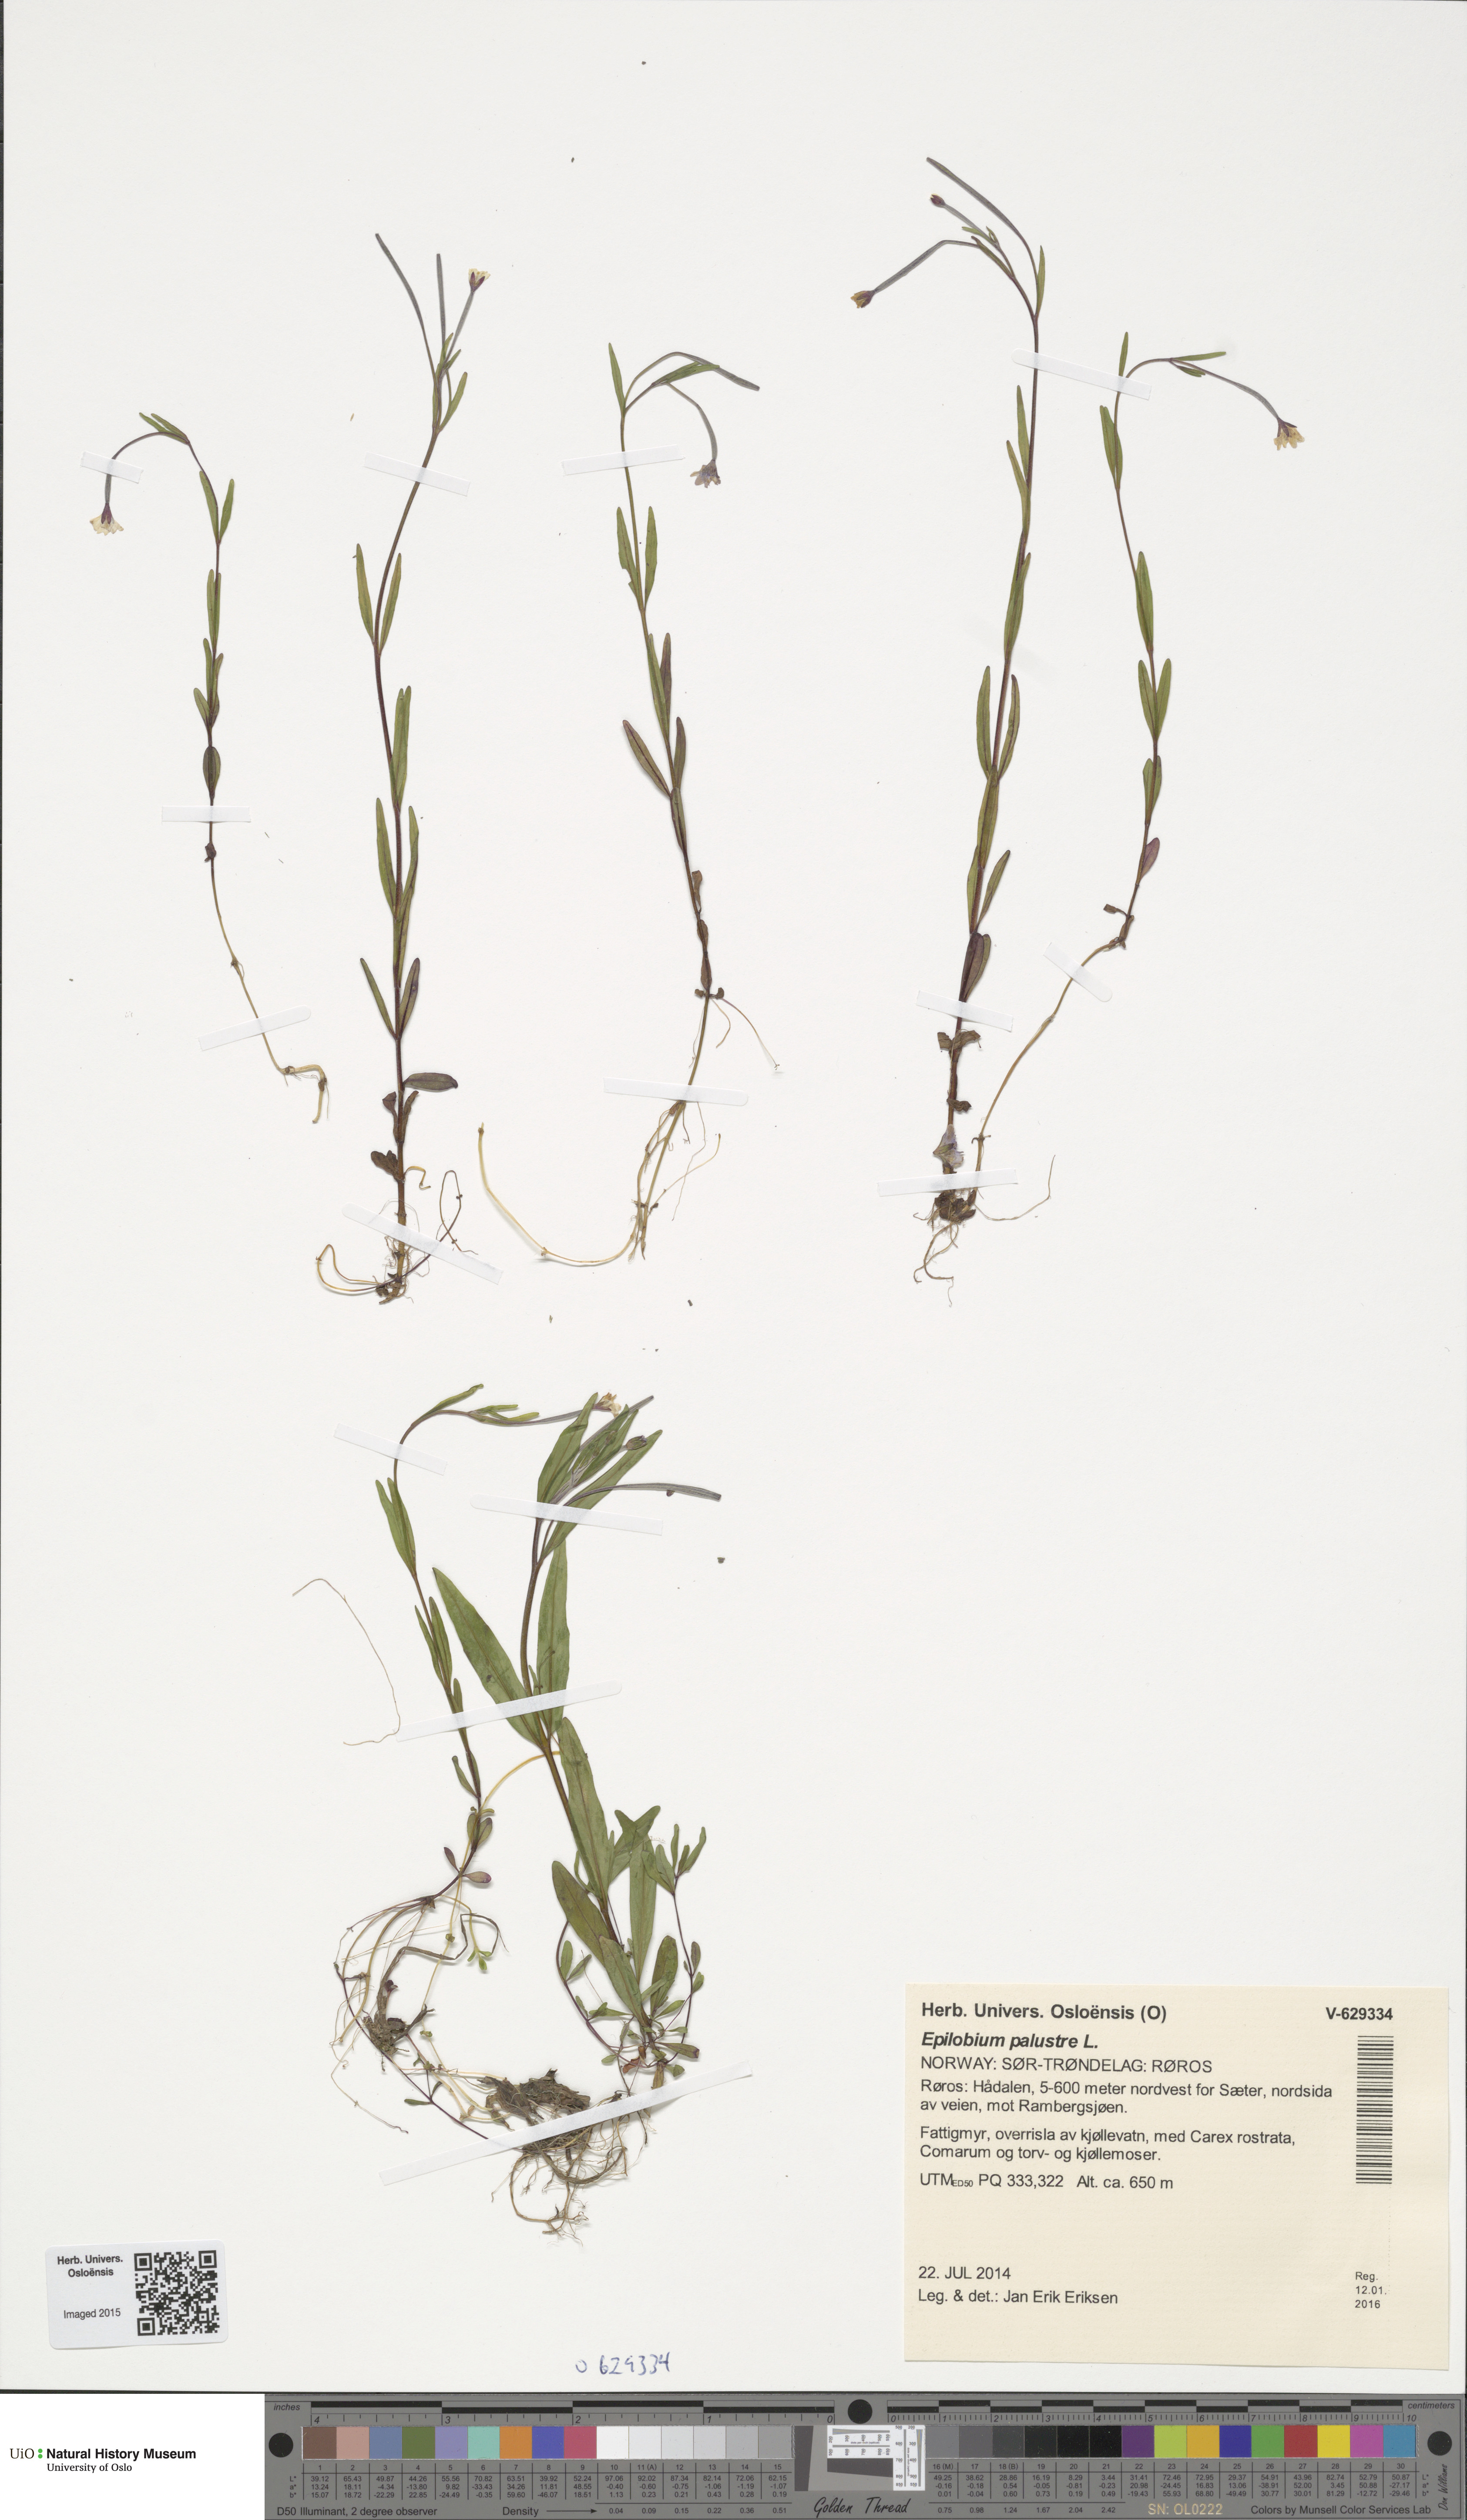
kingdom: Plantae
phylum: Tracheophyta
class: Magnoliopsida
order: Myrtales
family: Onagraceae
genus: Epilobium
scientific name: Epilobium palustre
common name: Marsh willowherb
